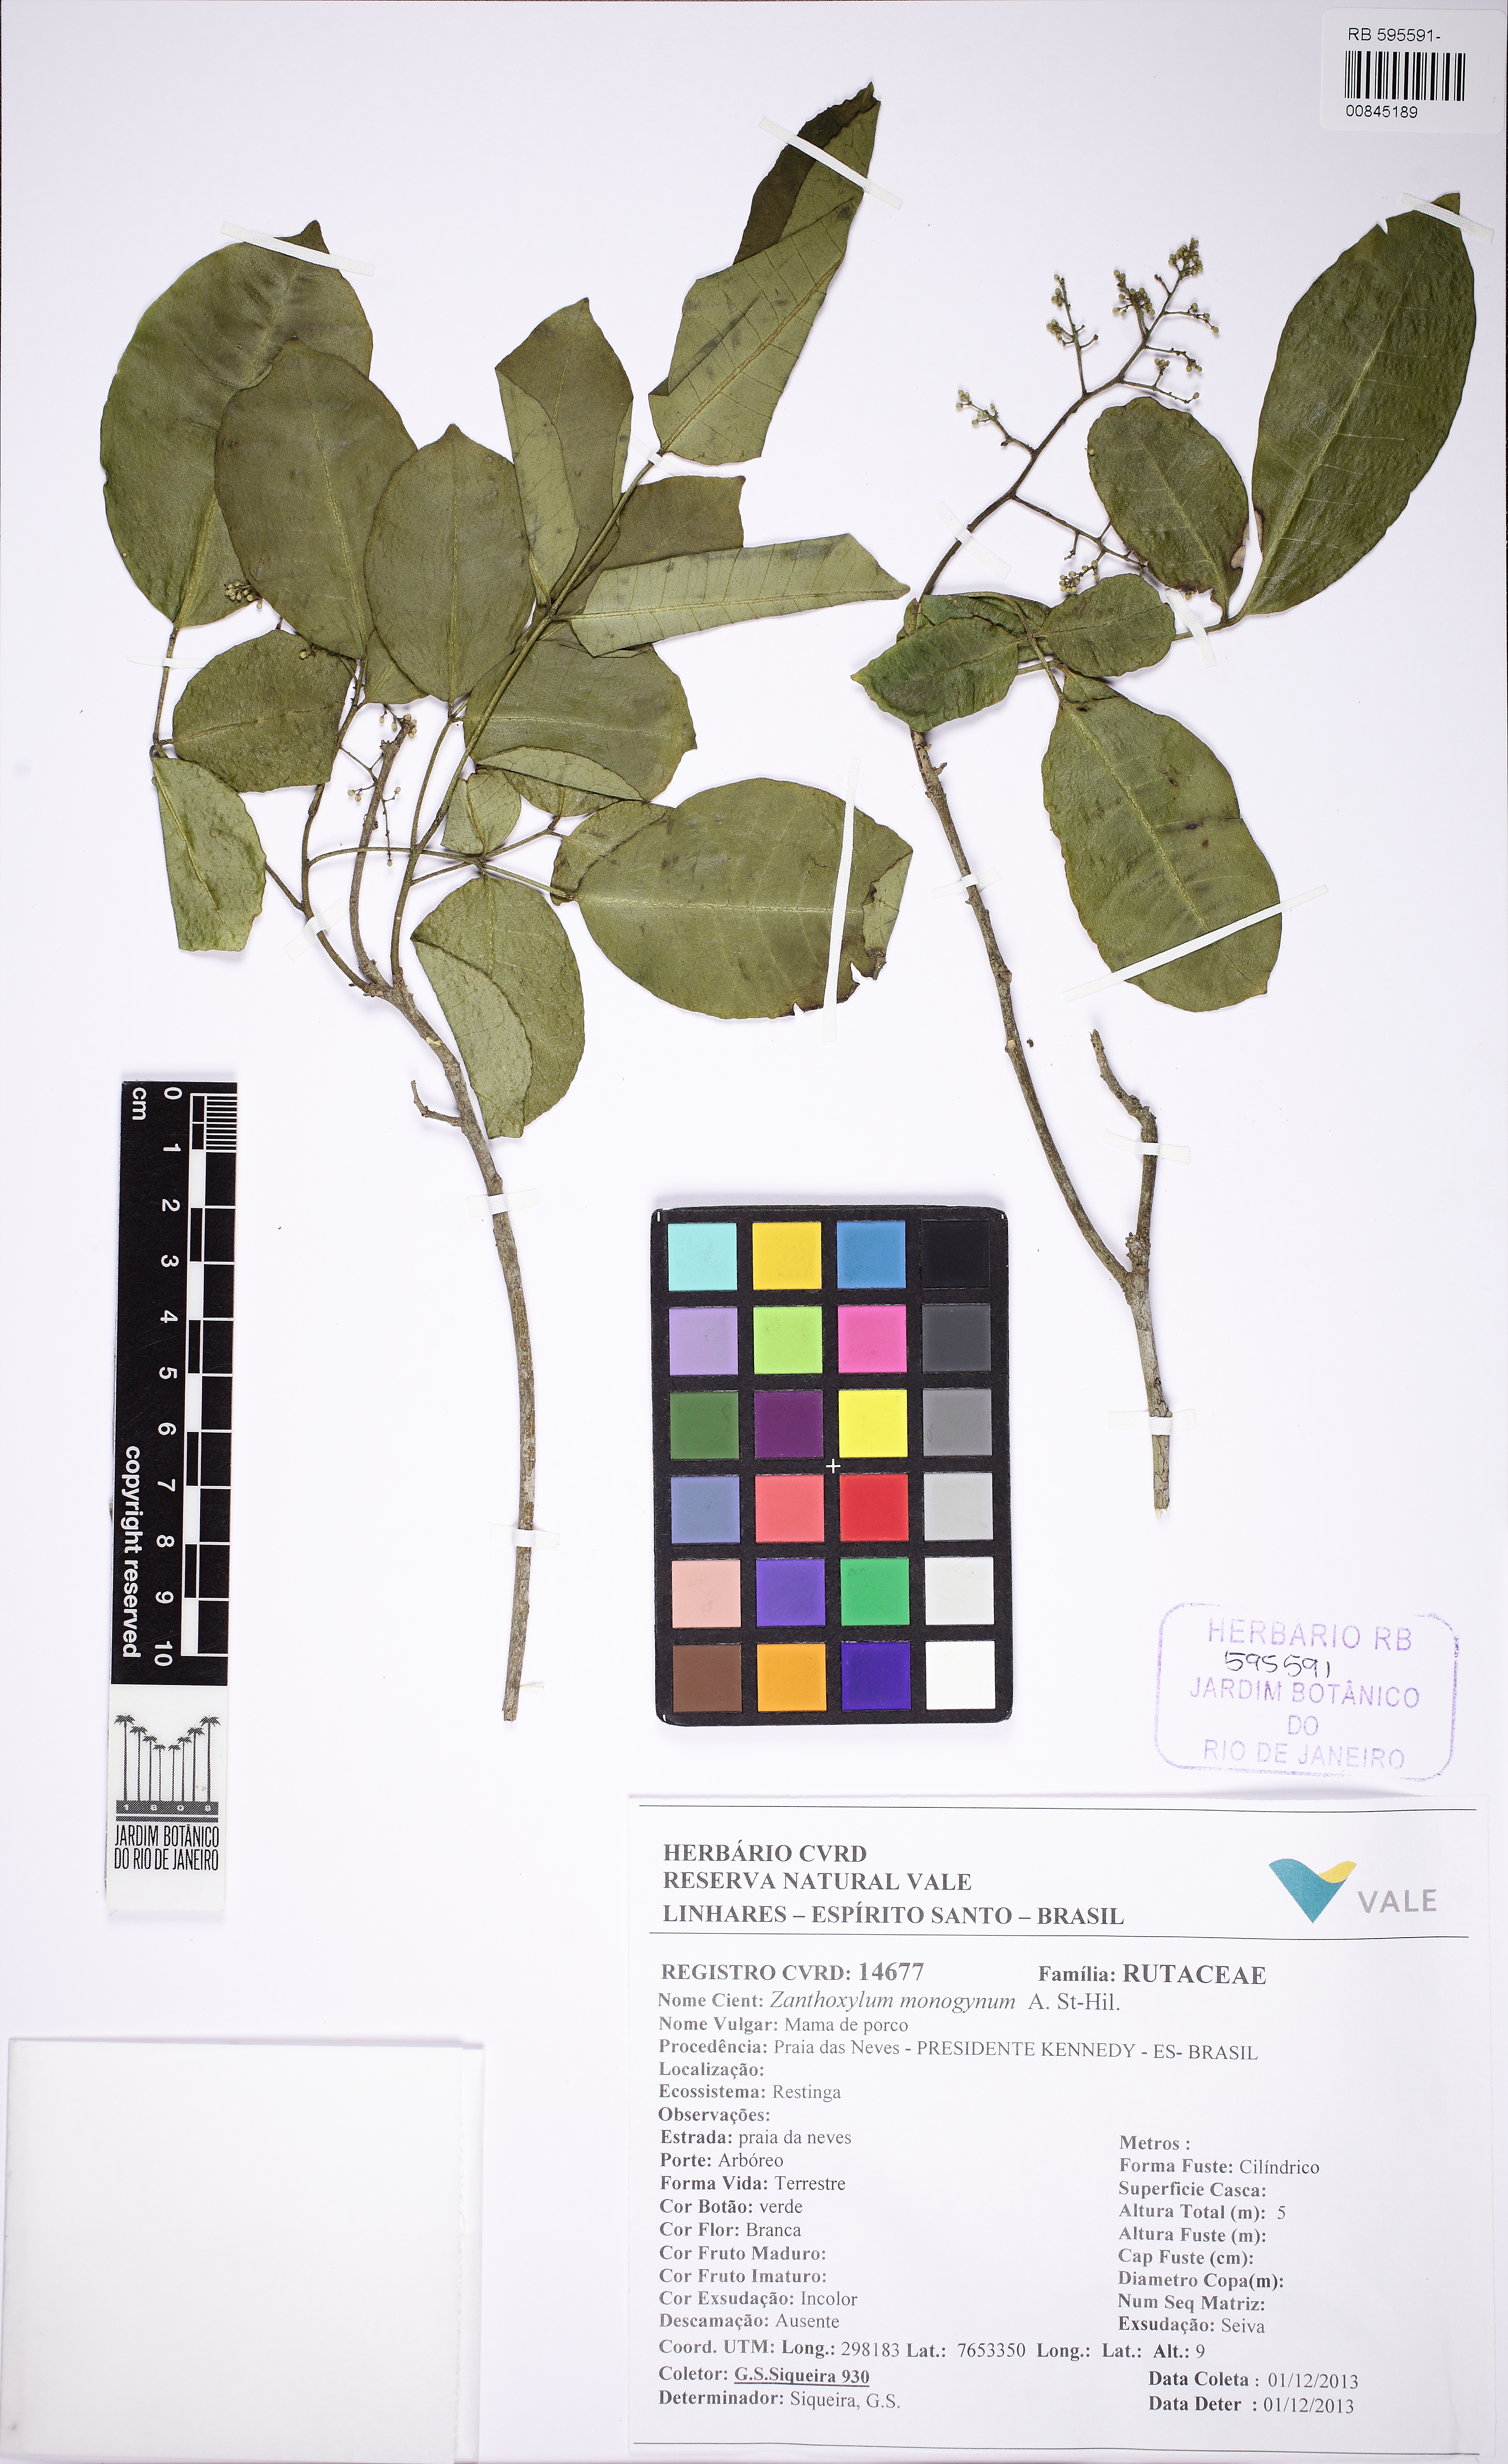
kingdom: Plantae
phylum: Tracheophyta
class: Magnoliopsida
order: Sapindales
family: Rutaceae
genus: Zanthoxylum
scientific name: Zanthoxylum monogynum
